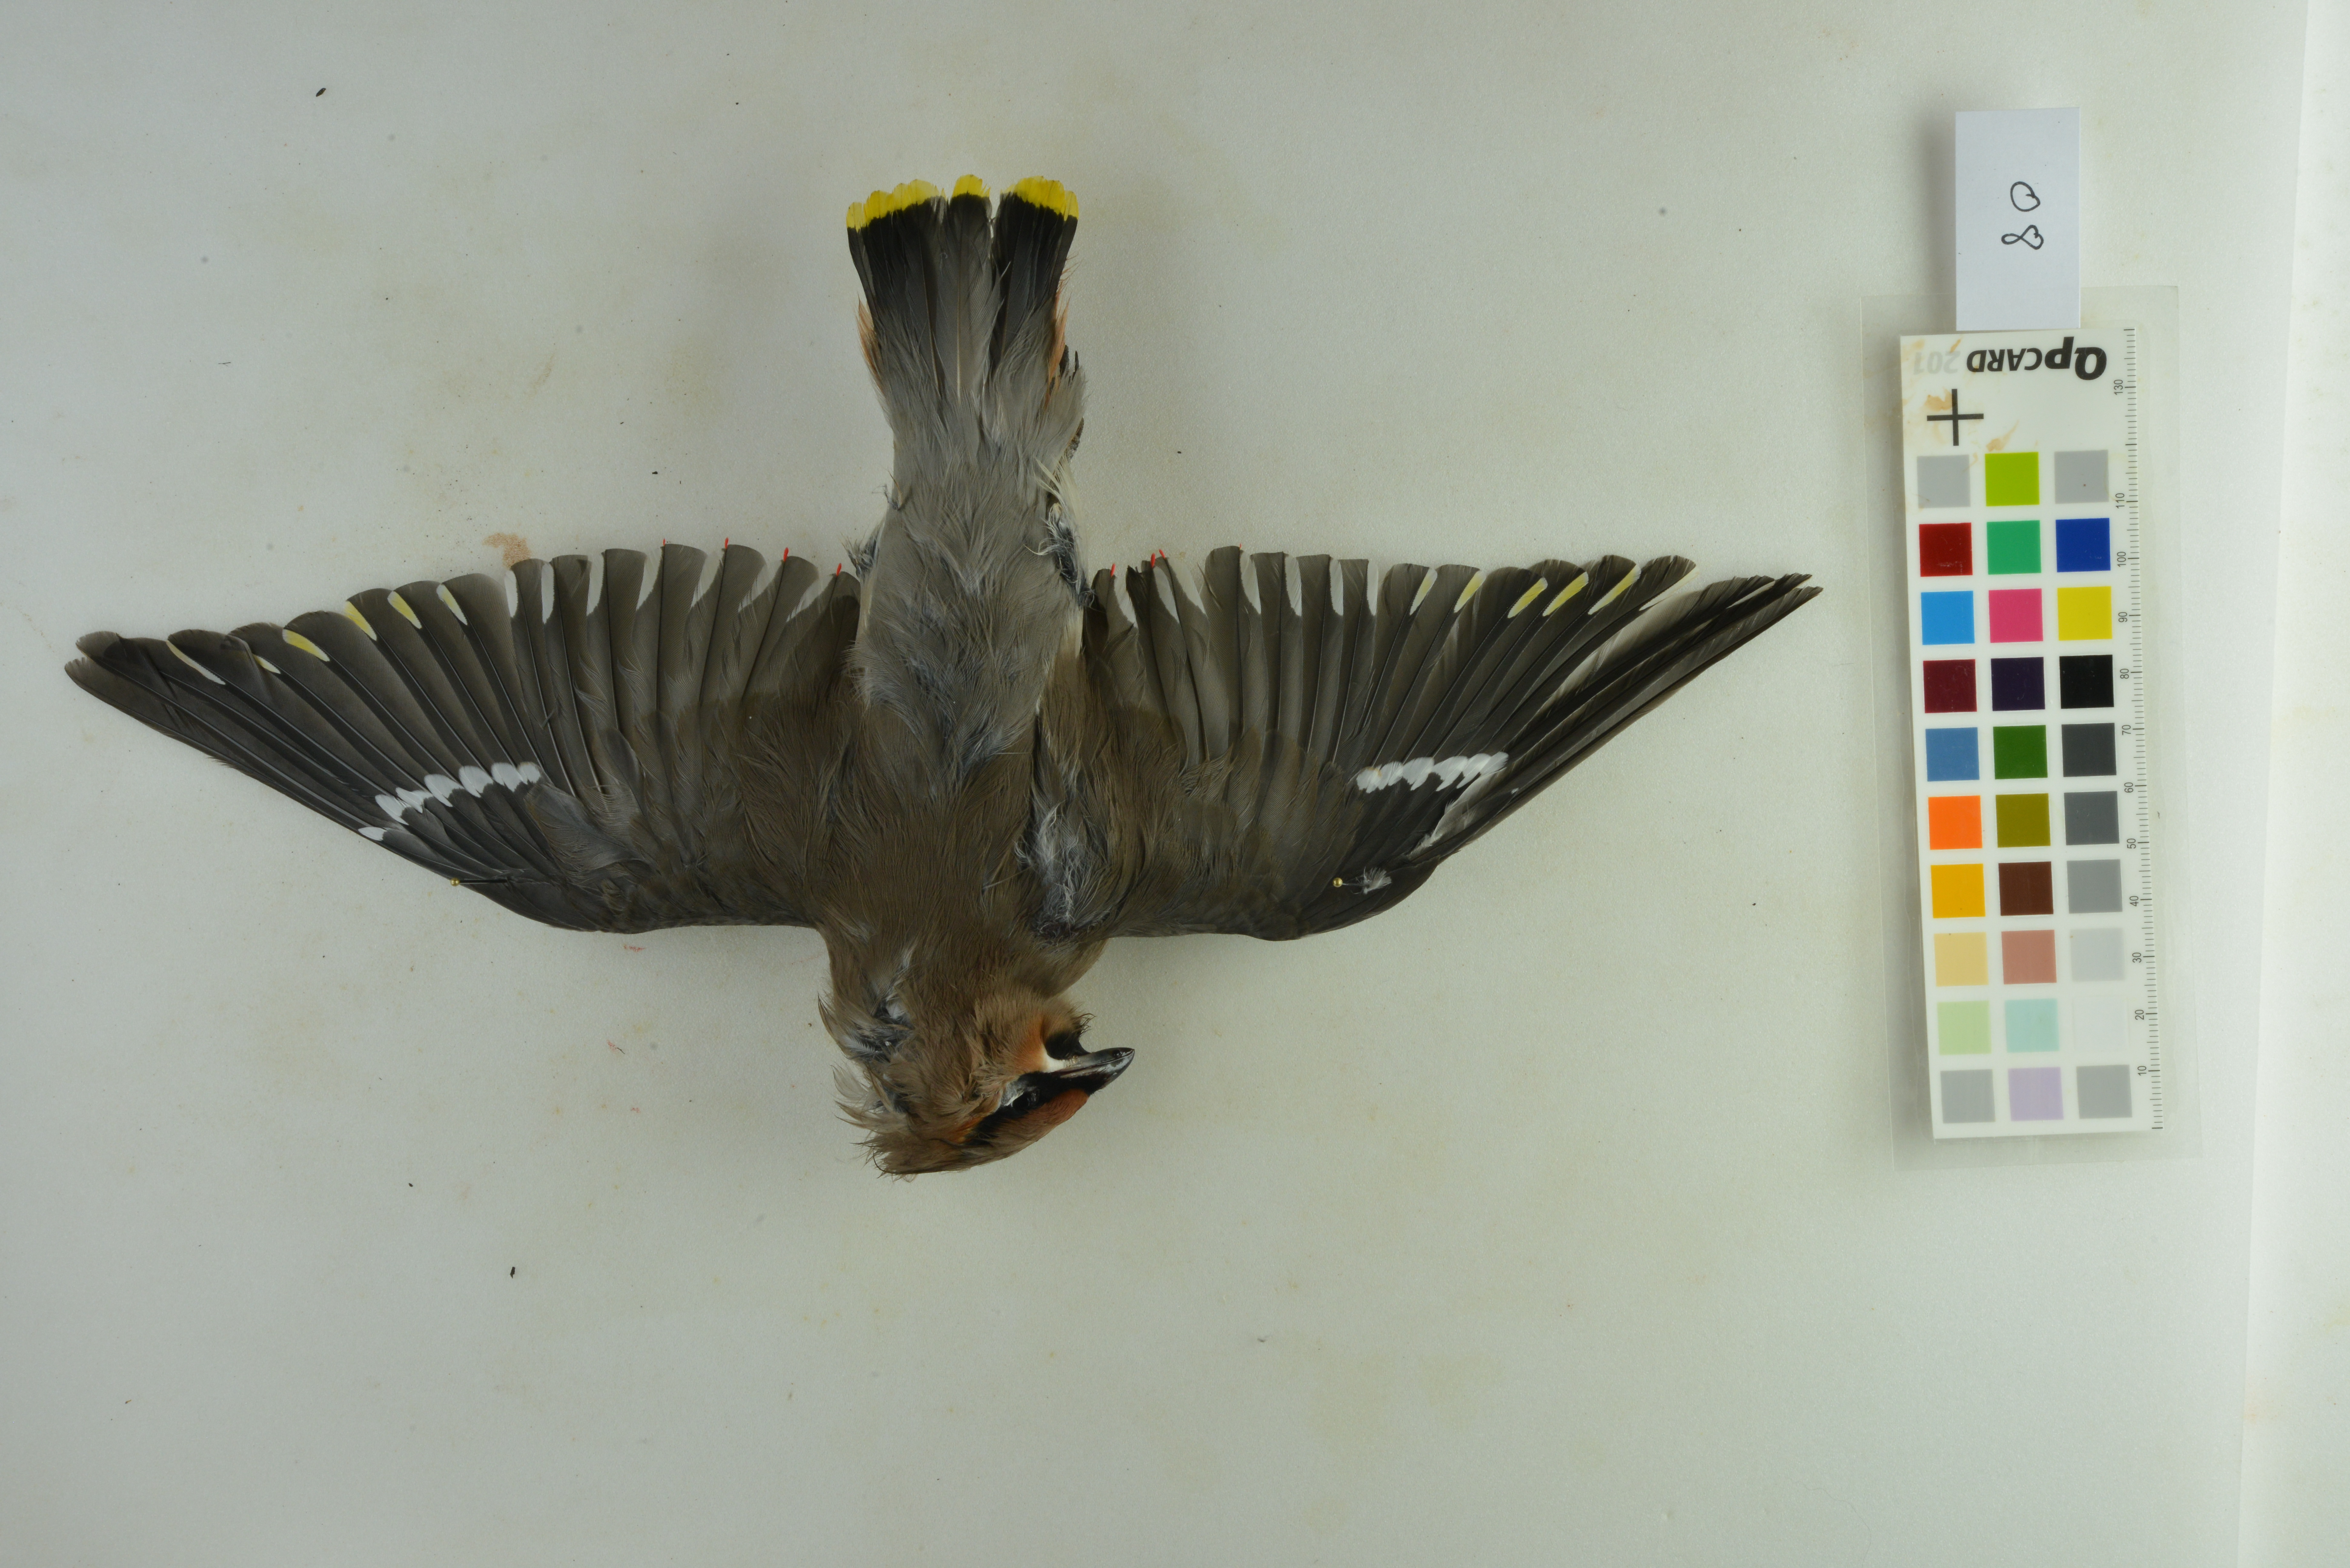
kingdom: Animalia
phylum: Chordata
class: Aves
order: Passeriformes
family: Bombycillidae
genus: Bombycilla
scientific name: Bombycilla garrulus
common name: Bohemian waxwing
